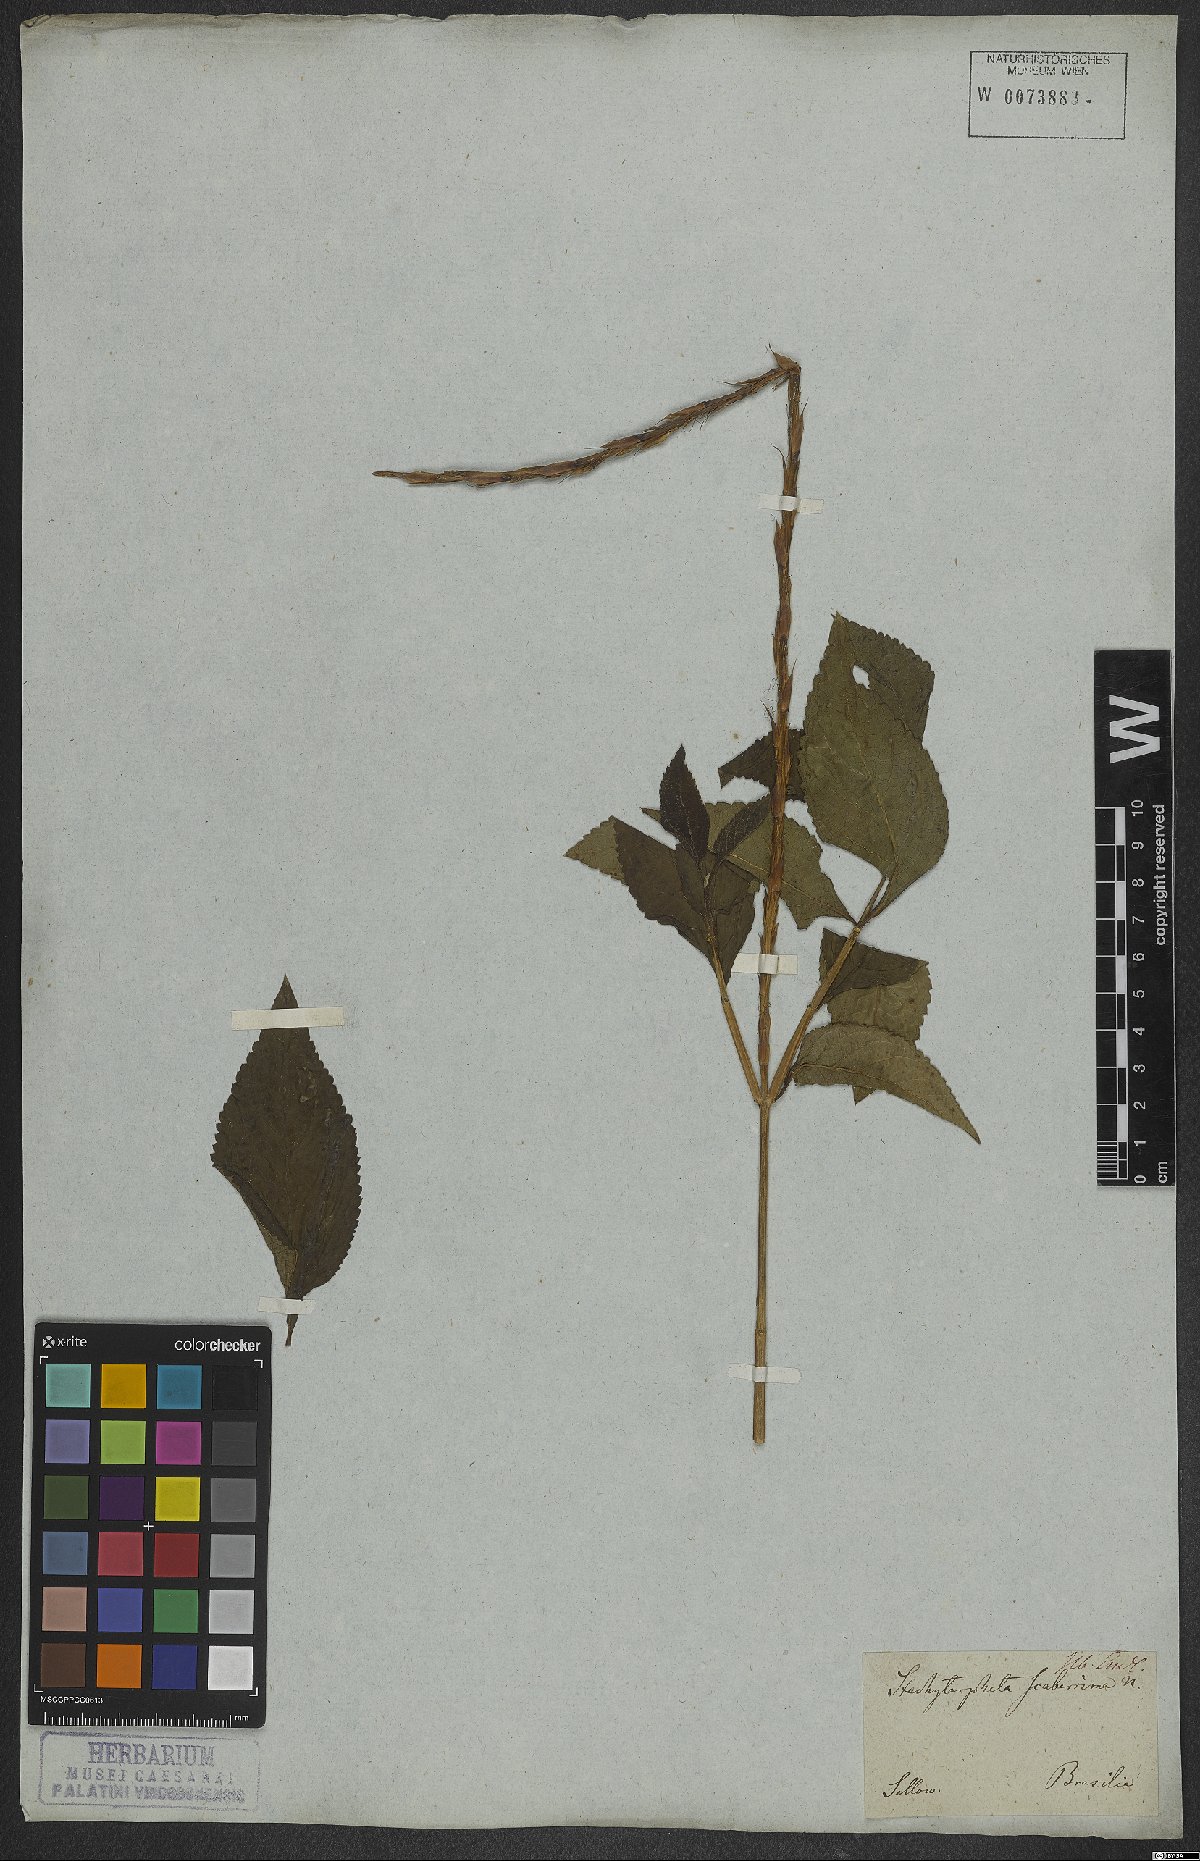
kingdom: Plantae
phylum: Tracheophyta
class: Magnoliopsida
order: Lamiales
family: Verbenaceae
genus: Stachytarpheta
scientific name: Stachytarpheta scaberrima
